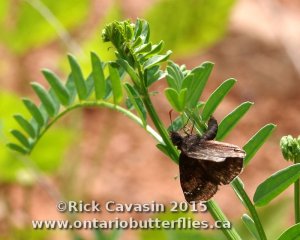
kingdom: Animalia
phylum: Arthropoda
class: Insecta
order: Lepidoptera
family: Hesperiidae
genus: Gesta
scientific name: Gesta
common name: Wild Indigo Duskywing
